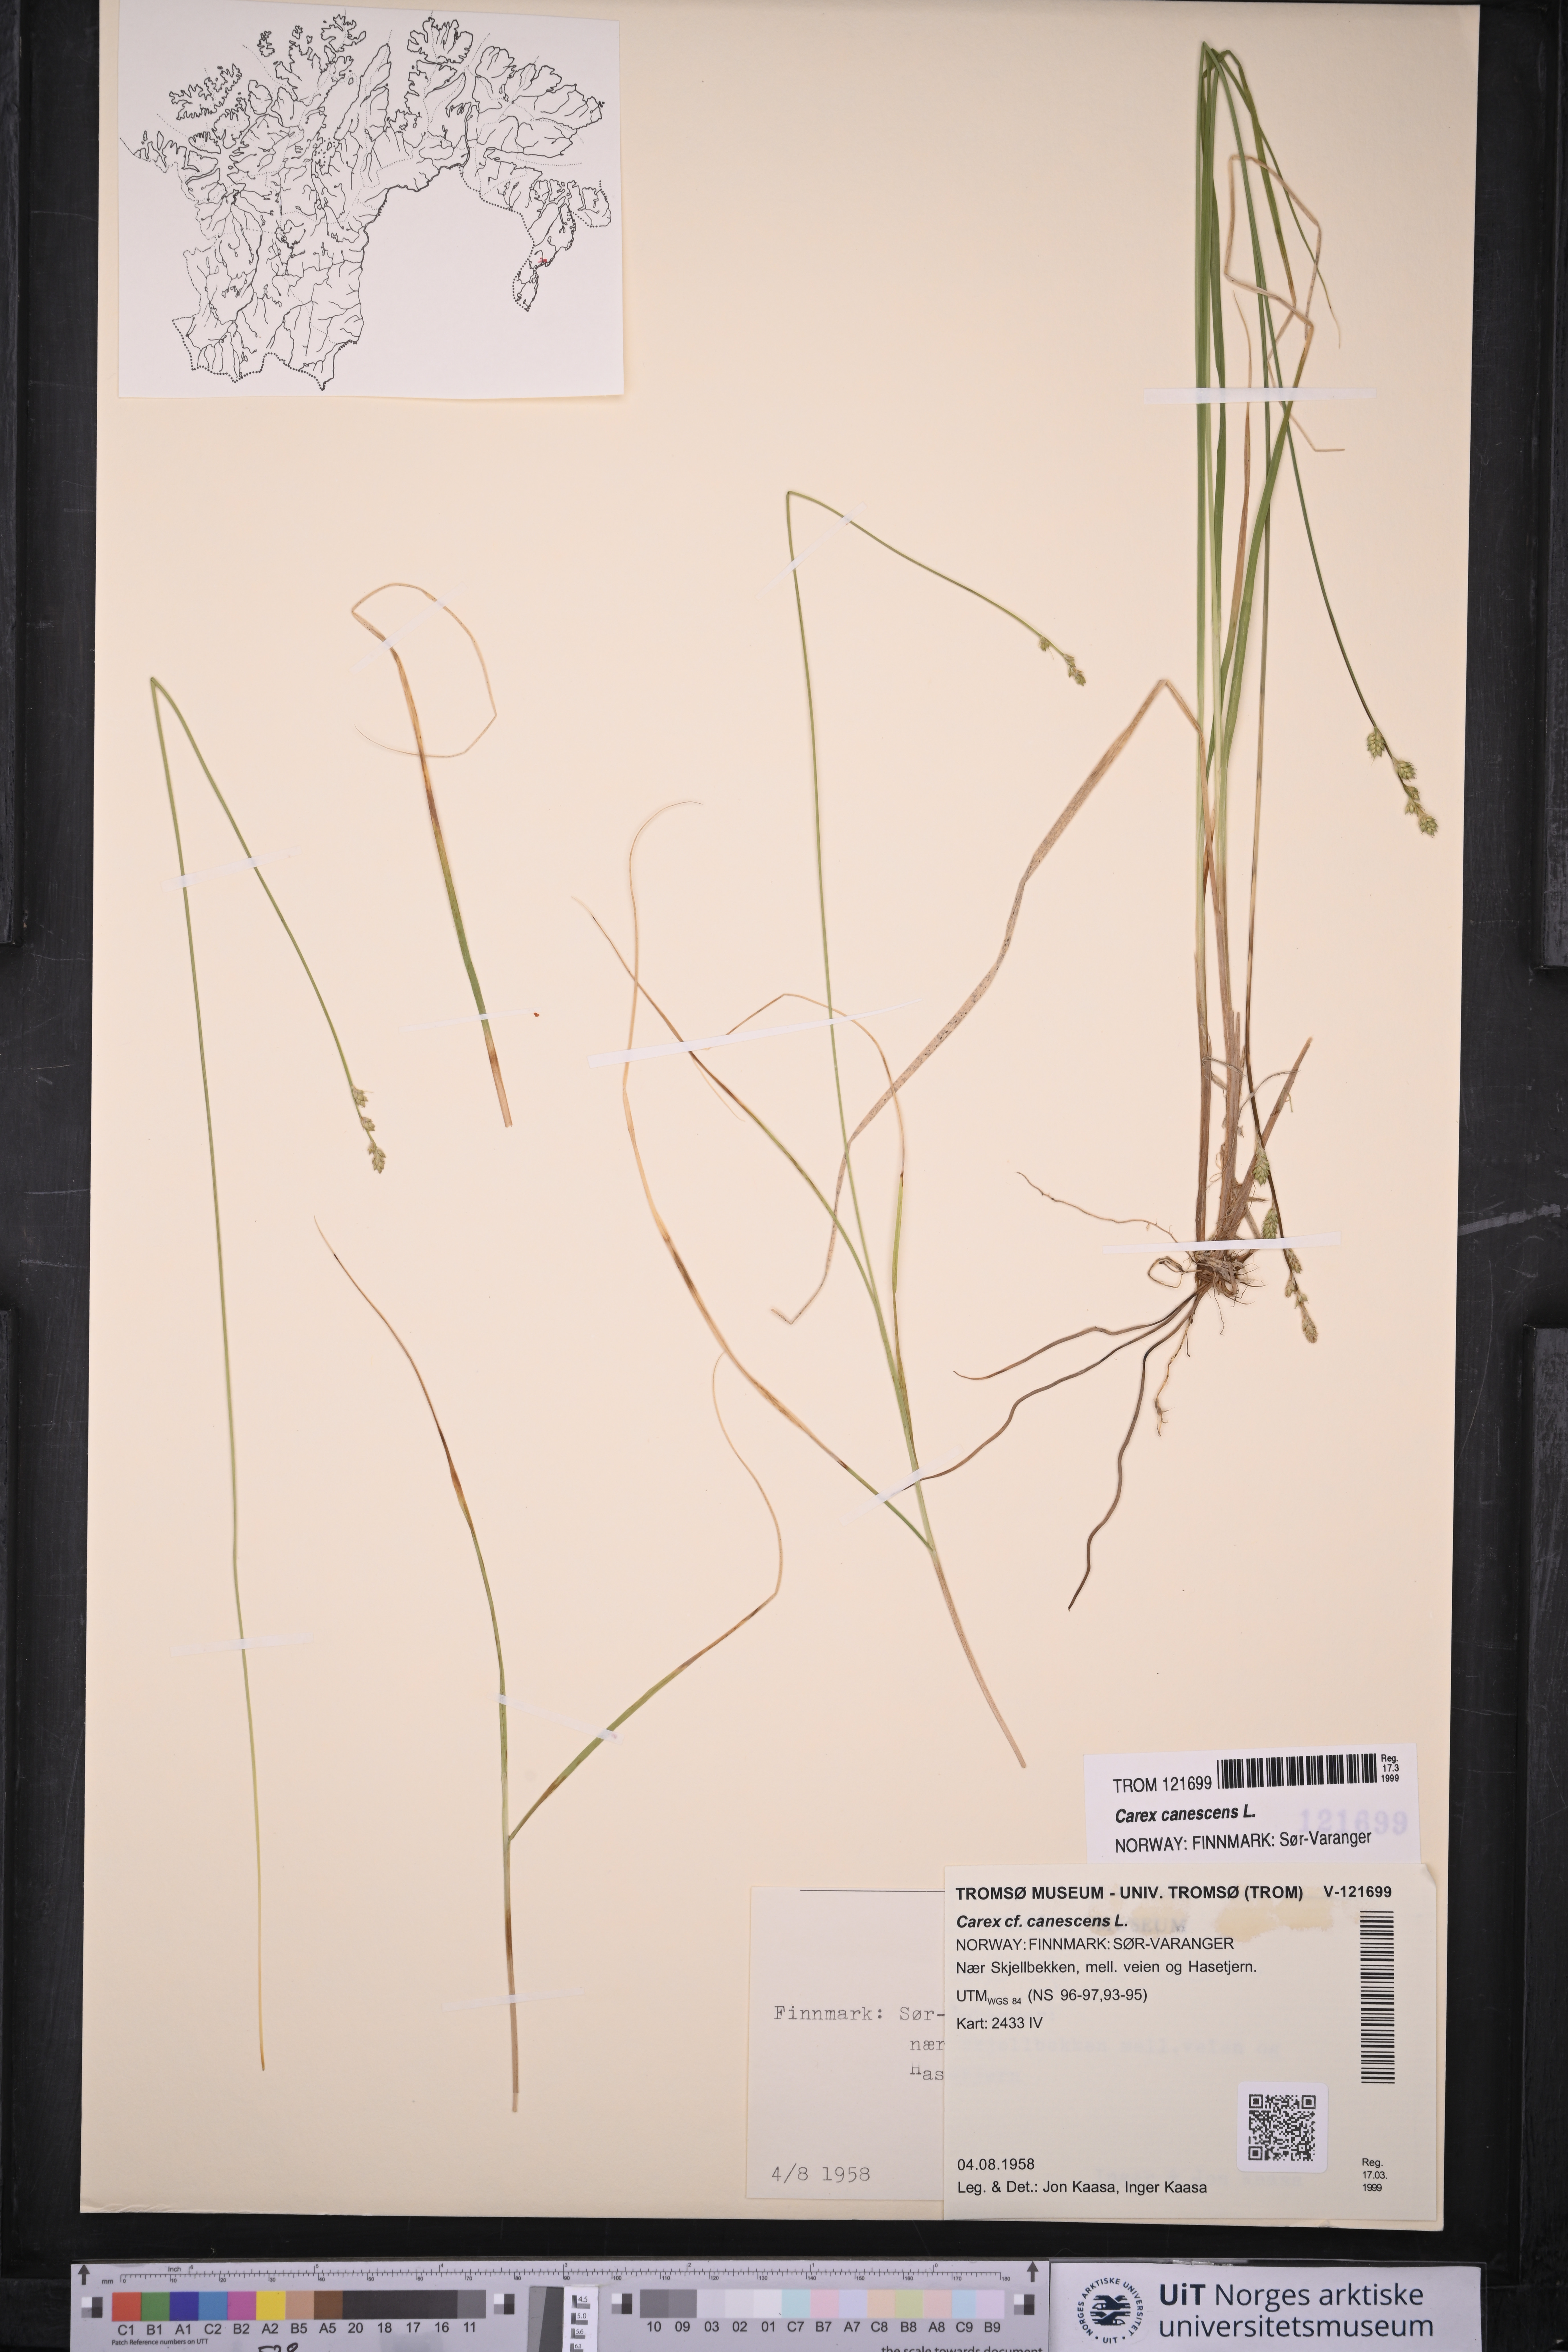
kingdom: Plantae
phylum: Tracheophyta
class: Liliopsida
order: Poales
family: Cyperaceae
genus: Carex
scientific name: Carex canescens
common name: White sedge
